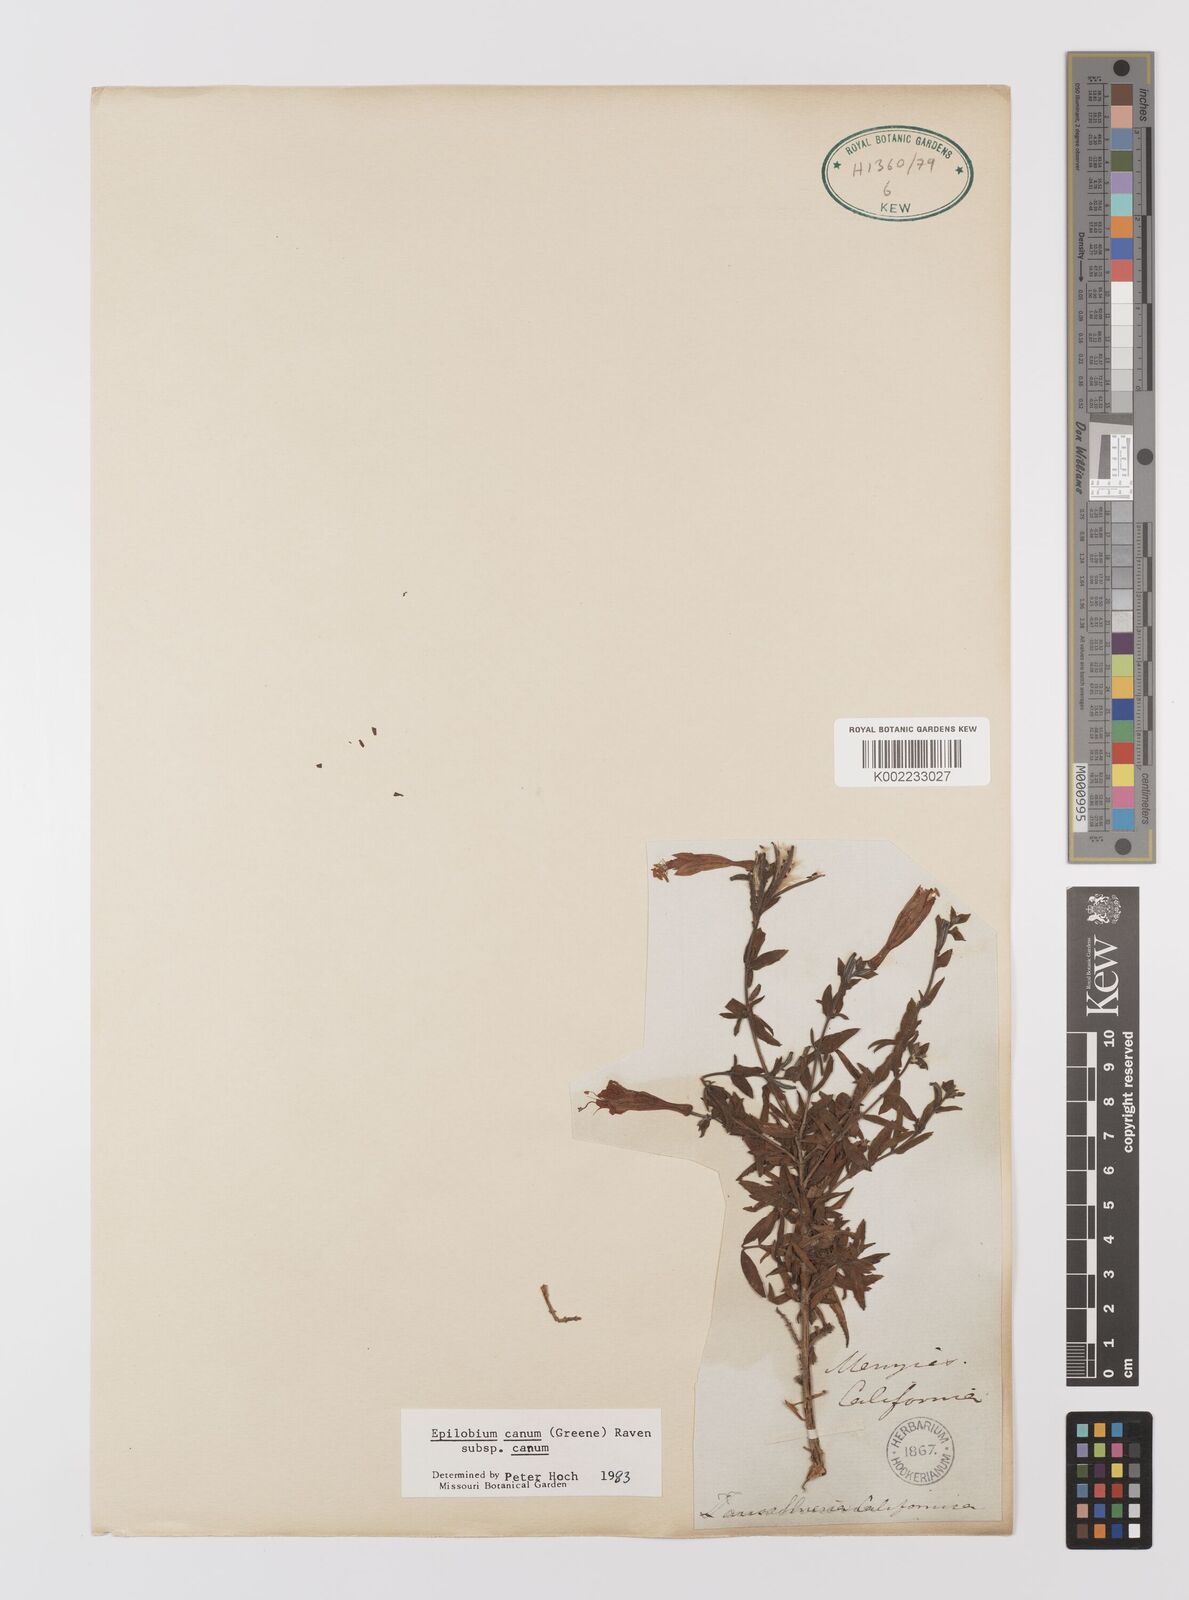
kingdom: Plantae
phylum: Tracheophyta
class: Magnoliopsida
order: Myrtales
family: Onagraceae
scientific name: Onagraceae
